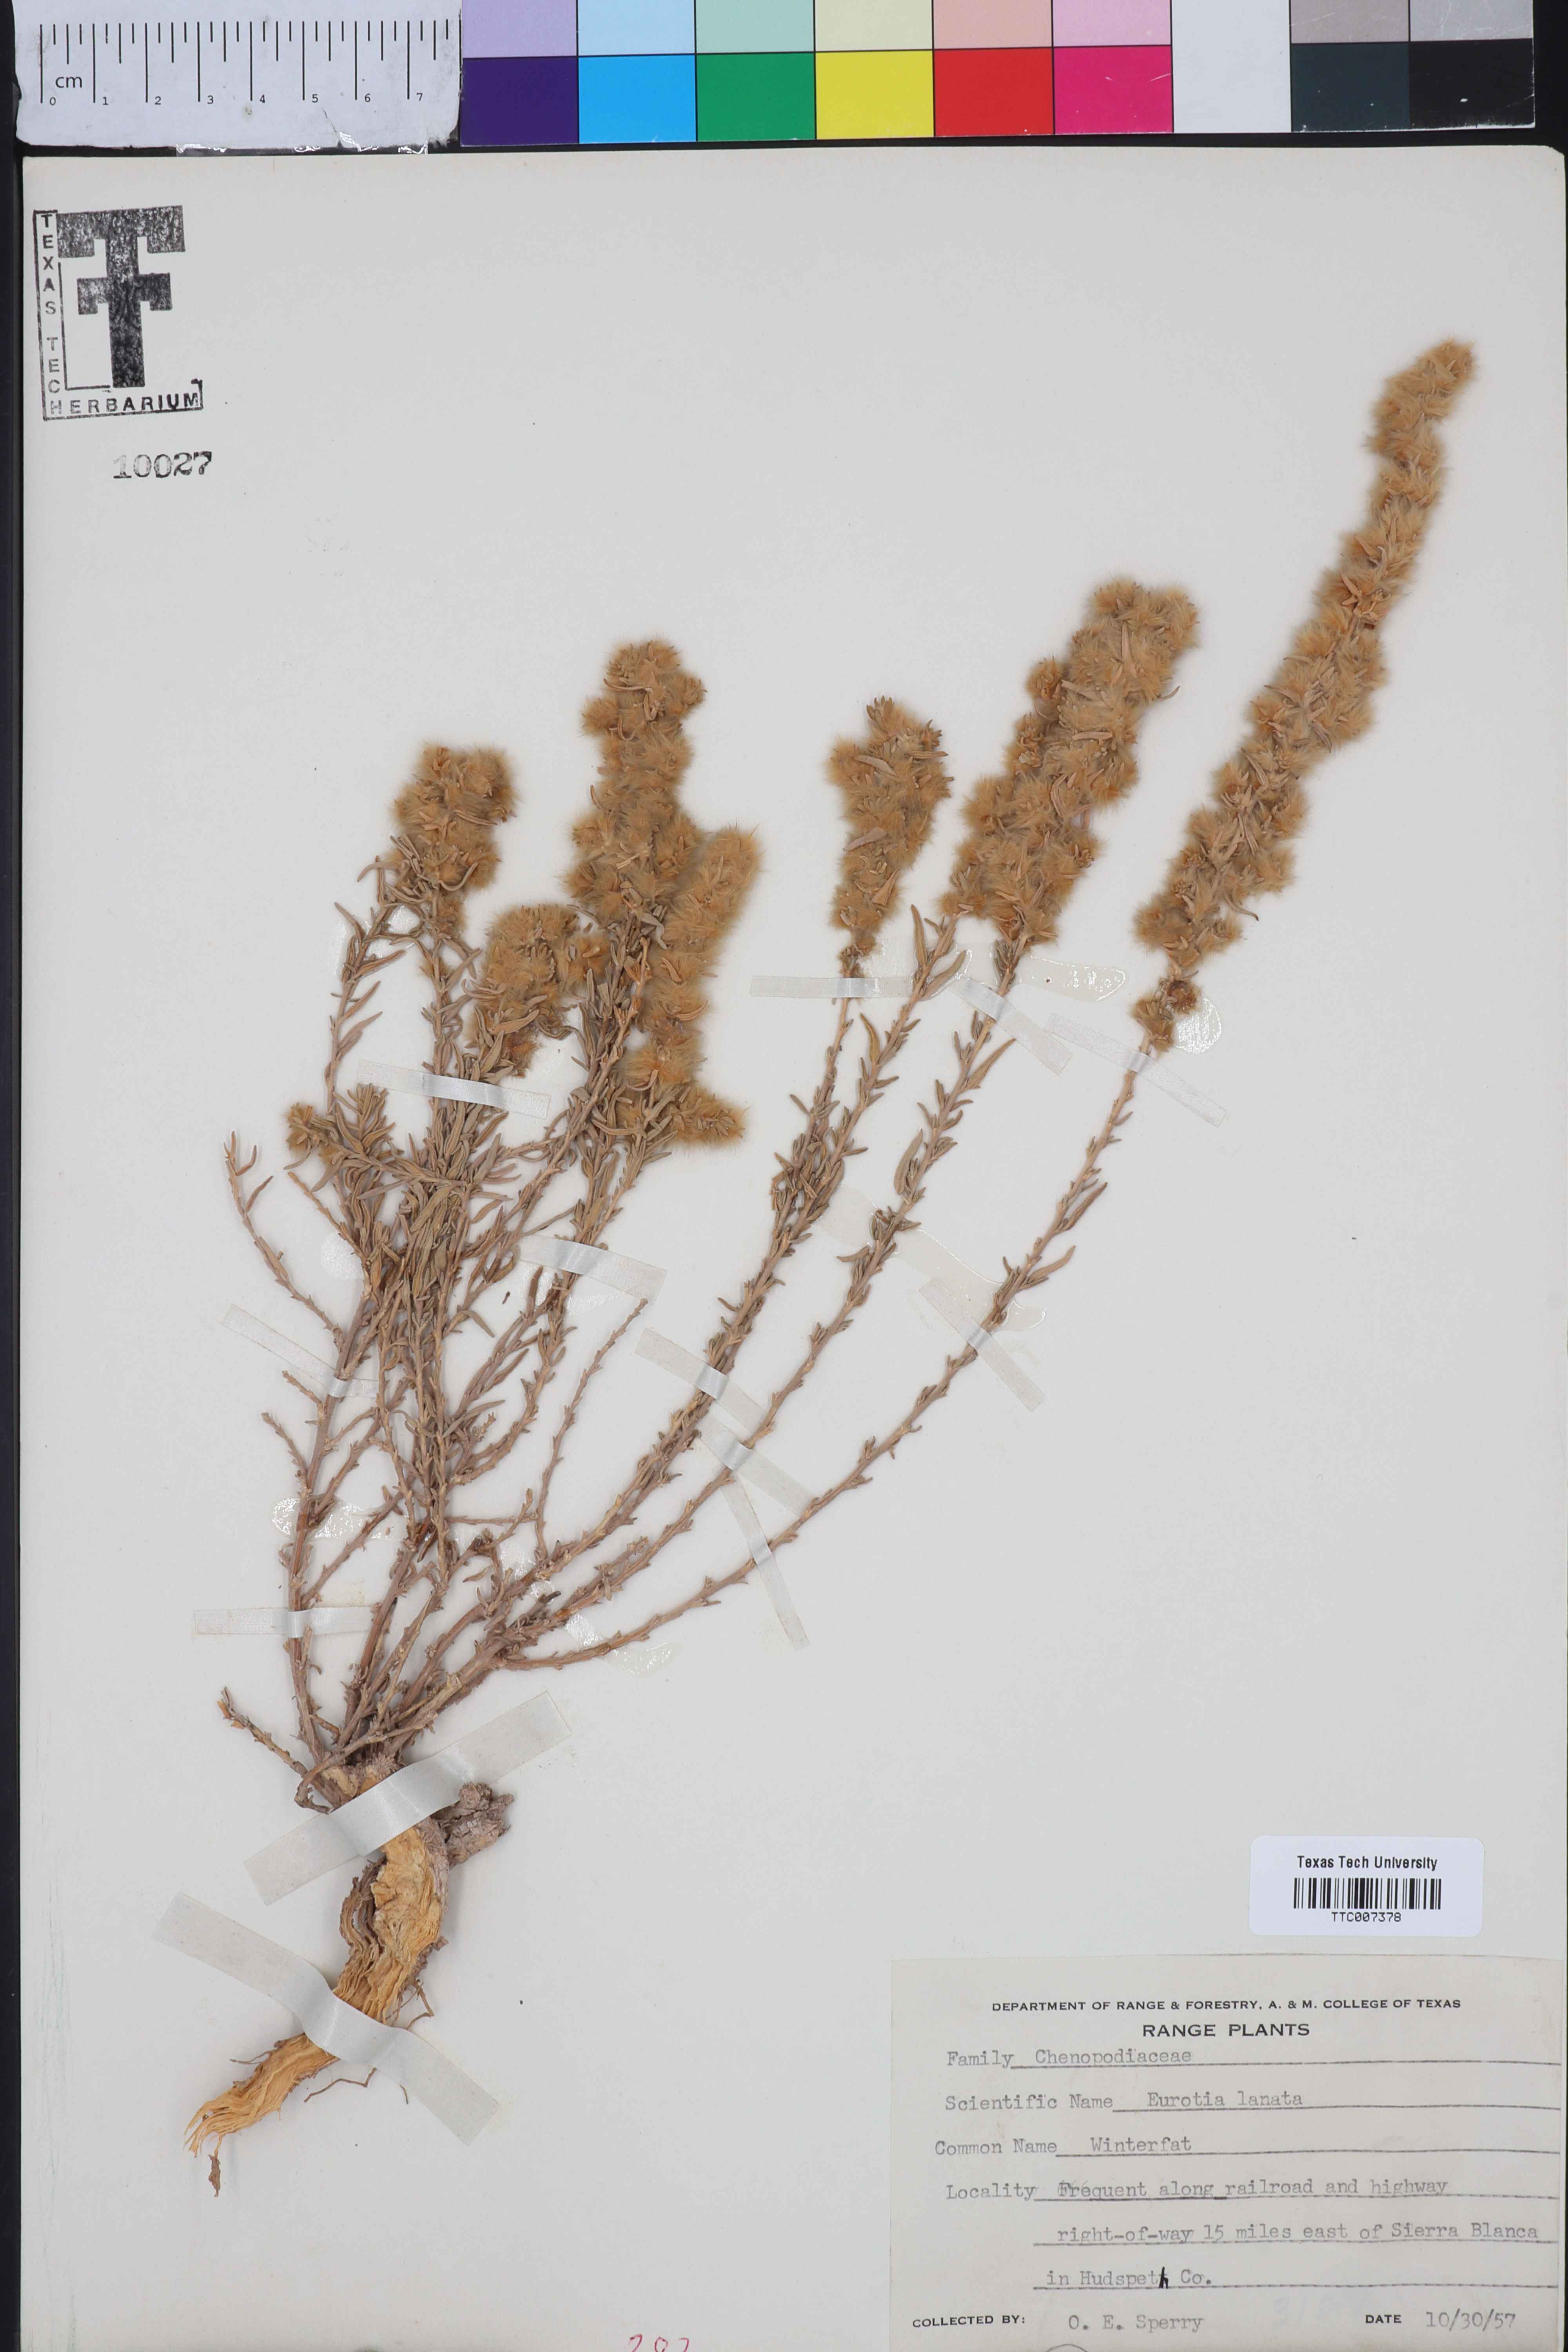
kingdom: Plantae
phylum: Tracheophyta
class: Magnoliopsida
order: Caryophyllales
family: Amaranthaceae
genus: Krascheninnikovia
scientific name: Krascheninnikovia lanata
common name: Winterfat
